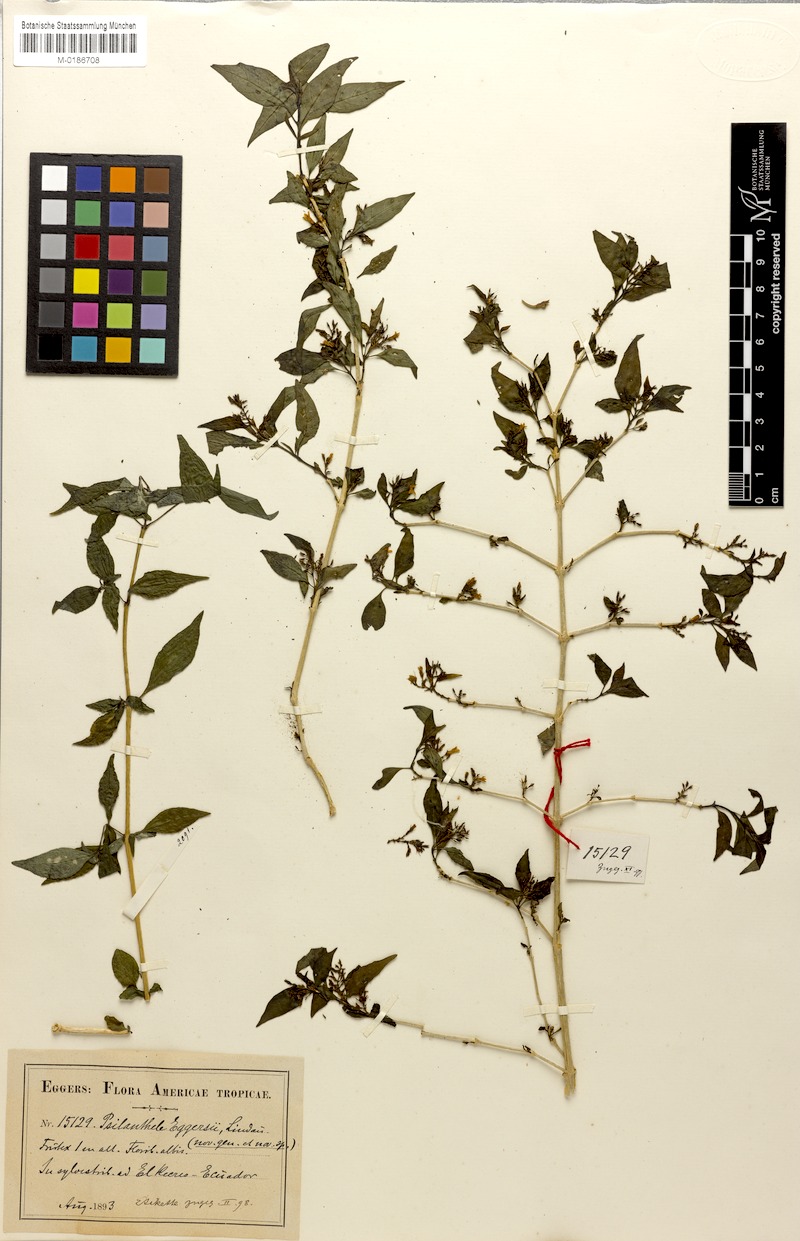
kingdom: Plantae
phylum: Tracheophyta
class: Magnoliopsida
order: Lamiales
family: Acanthaceae
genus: Psilanthele
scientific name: Psilanthele eggersii
